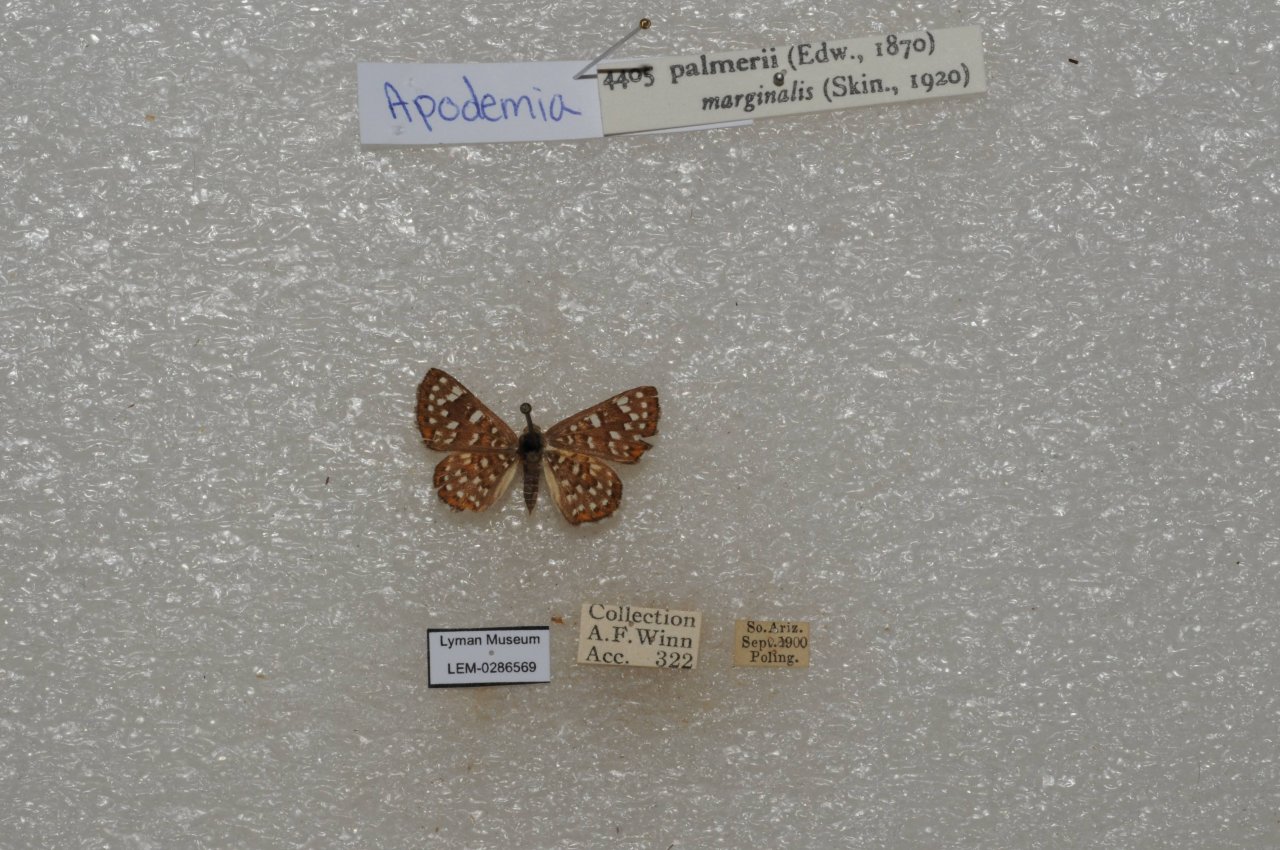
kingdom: Animalia
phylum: Arthropoda
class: Insecta
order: Lepidoptera
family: Riodinidae
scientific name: Riodinidae
